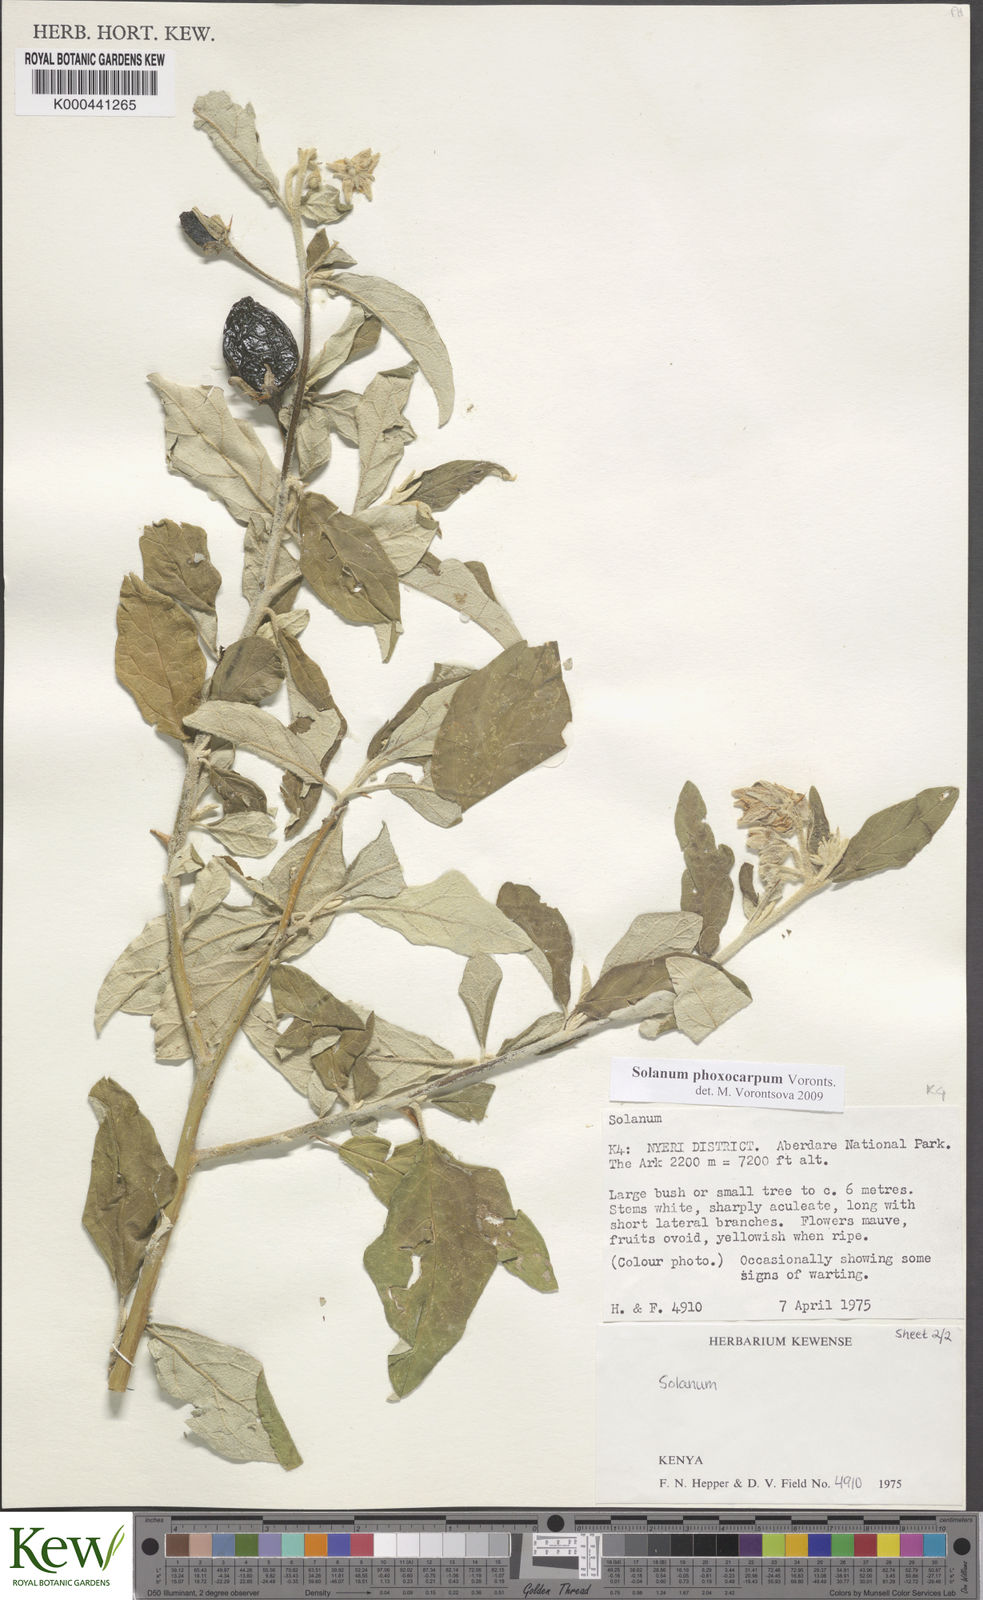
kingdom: Plantae
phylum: Tracheophyta
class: Magnoliopsida
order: Solanales
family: Solanaceae
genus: Solanum
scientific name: Solanum phoxocarpum
